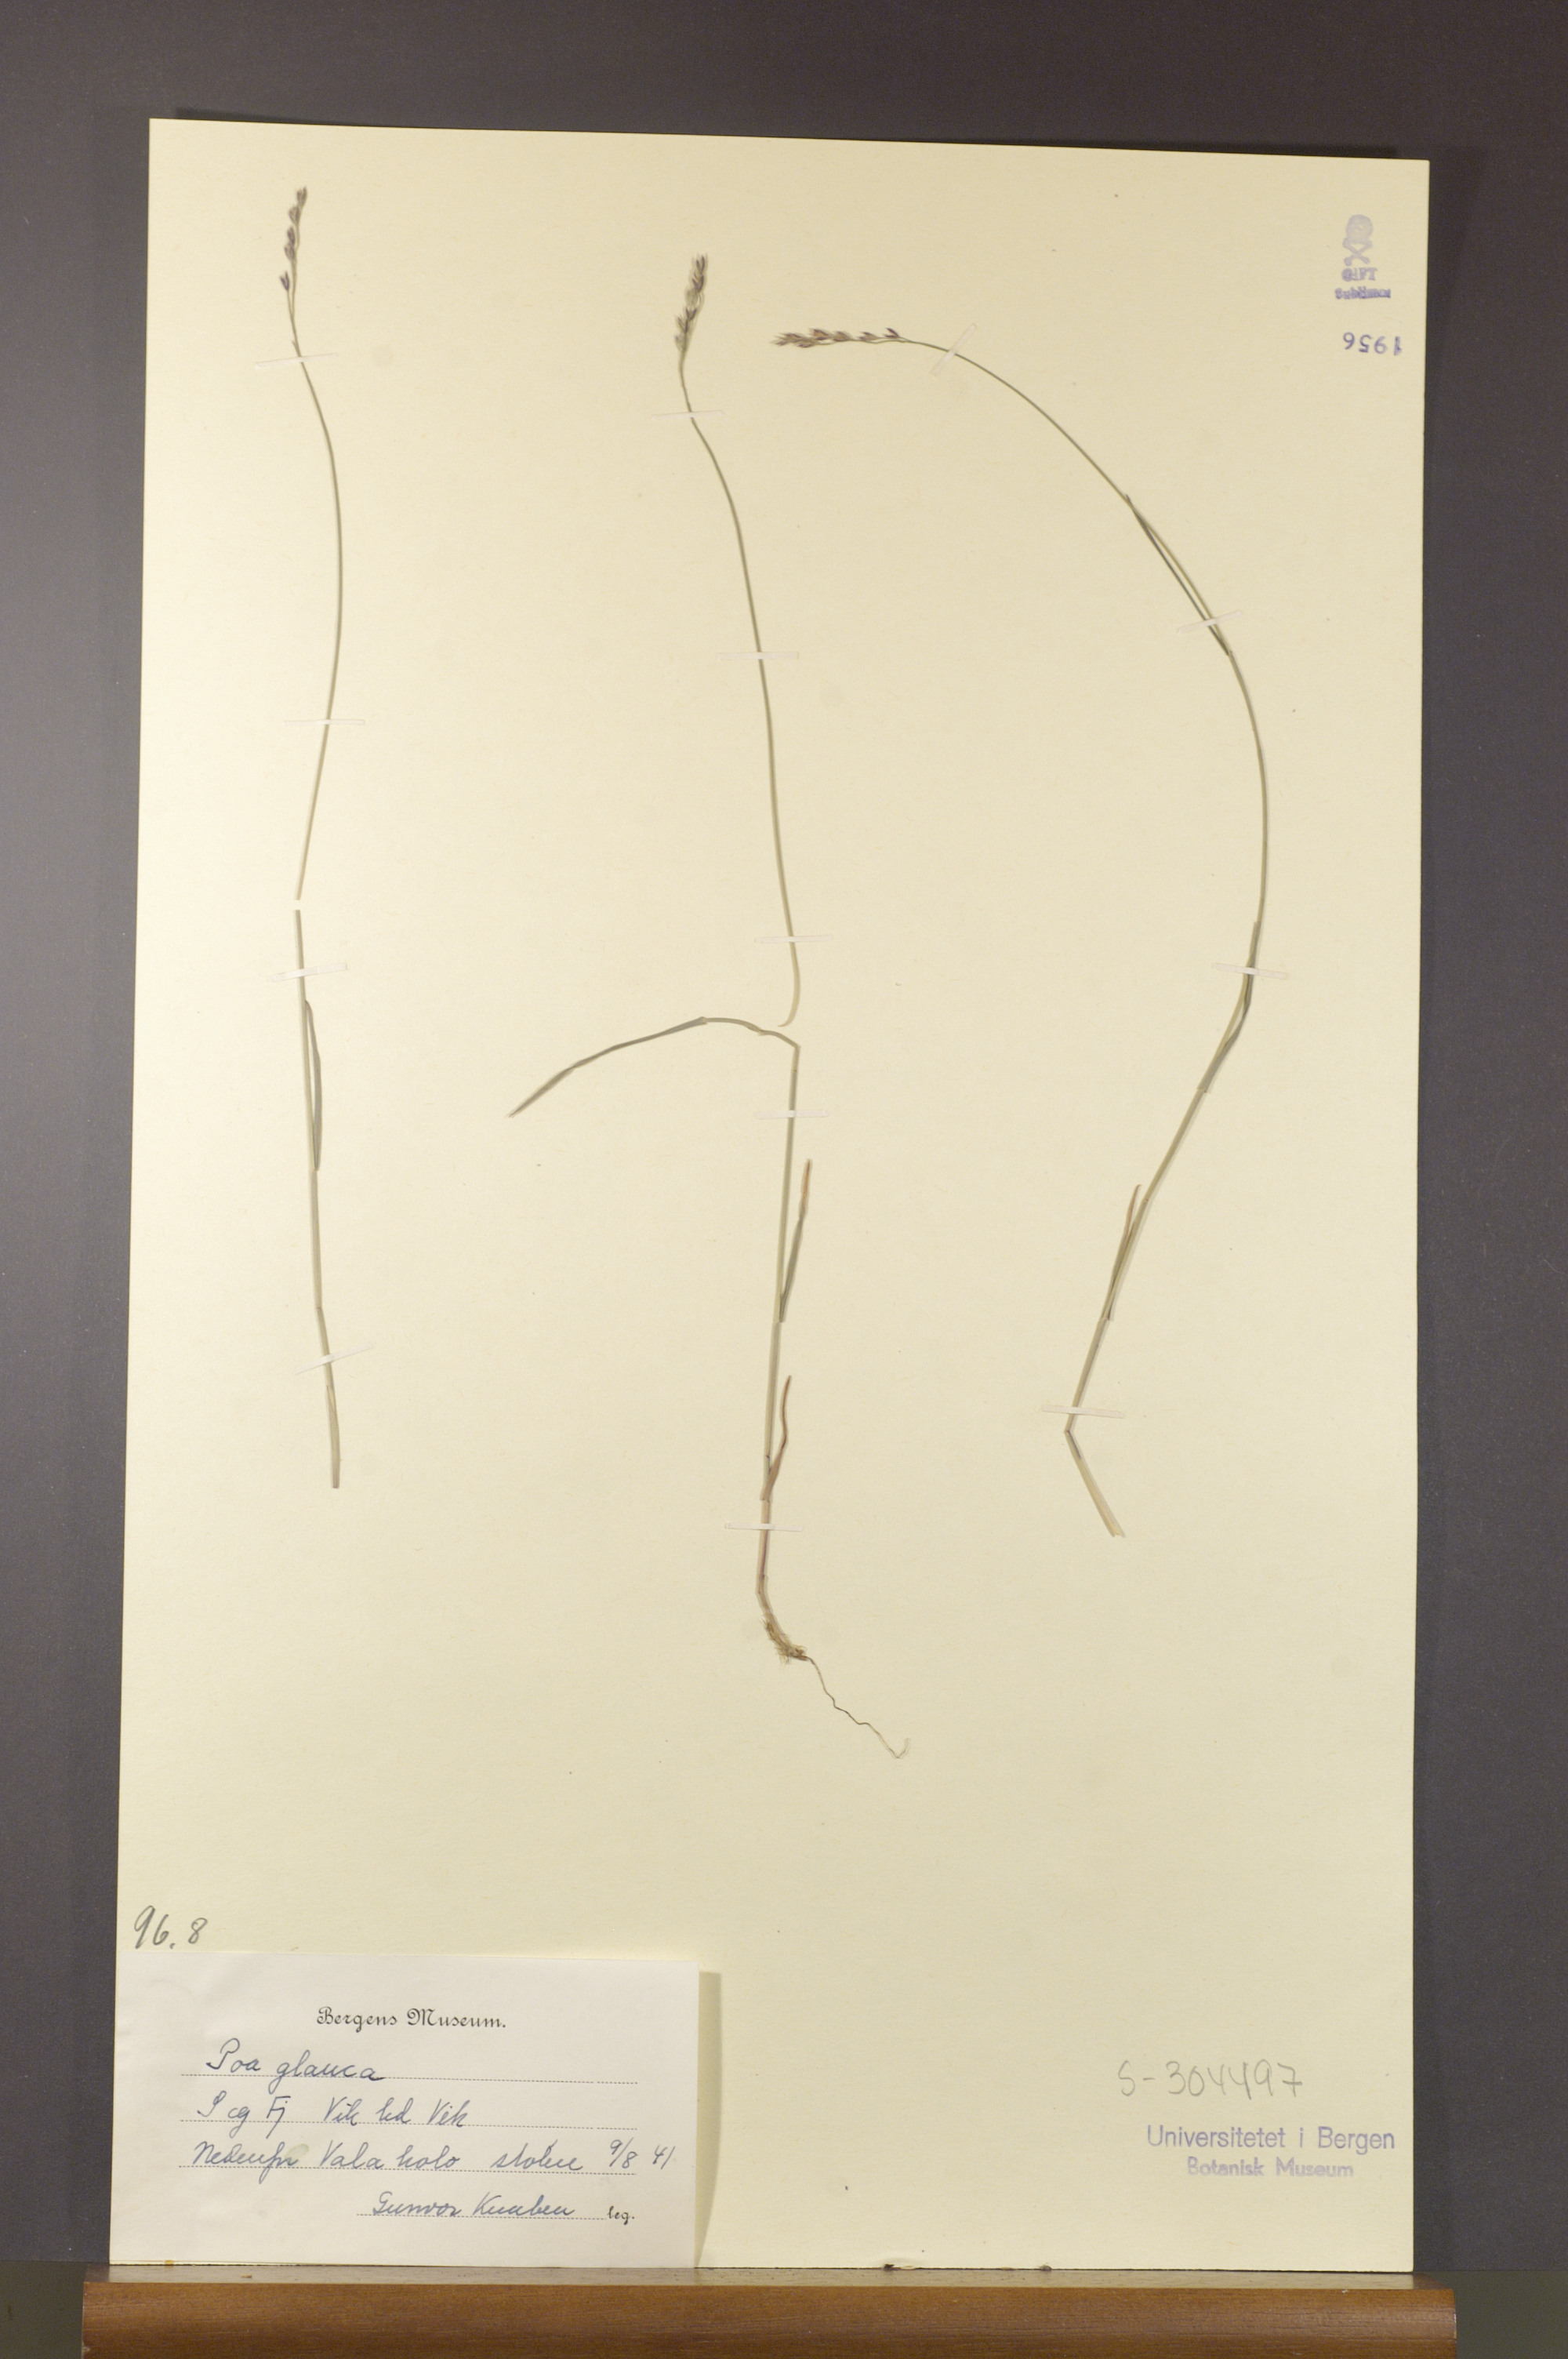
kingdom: Plantae
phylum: Tracheophyta
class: Liliopsida
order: Poales
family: Poaceae
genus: Poa
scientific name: Poa glauca
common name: Glaucous bluegrass
